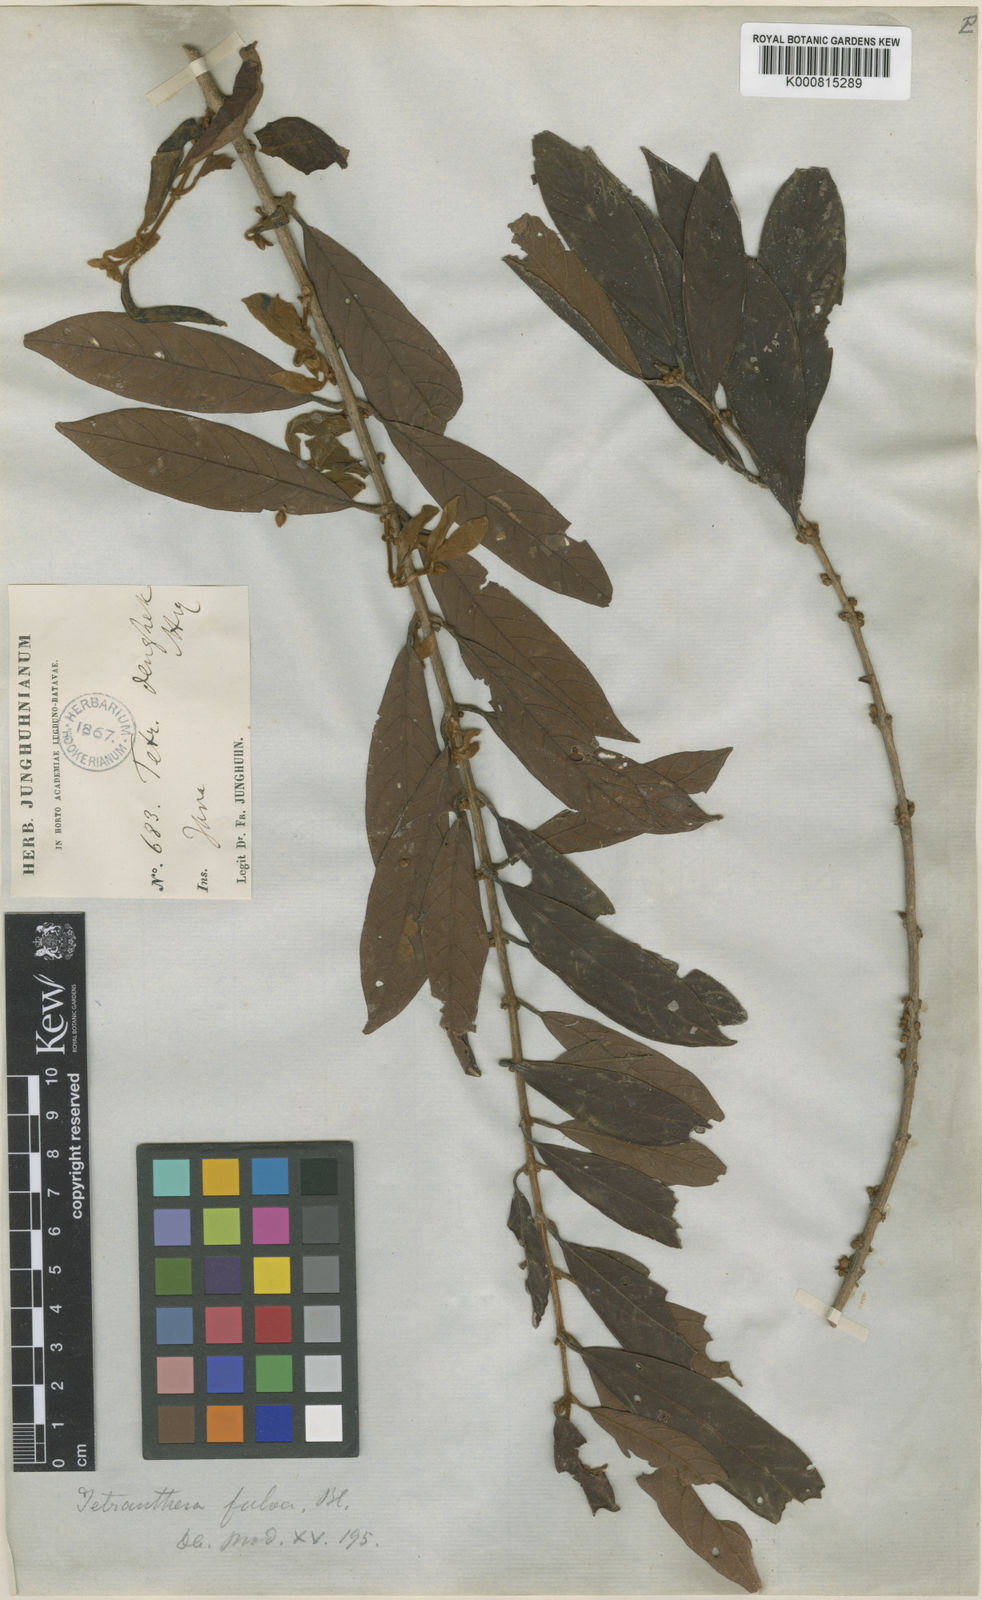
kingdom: Plantae
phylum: Tracheophyta
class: Magnoliopsida
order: Laurales
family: Lauraceae
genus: Litsea
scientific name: Litsea oppositifolia
